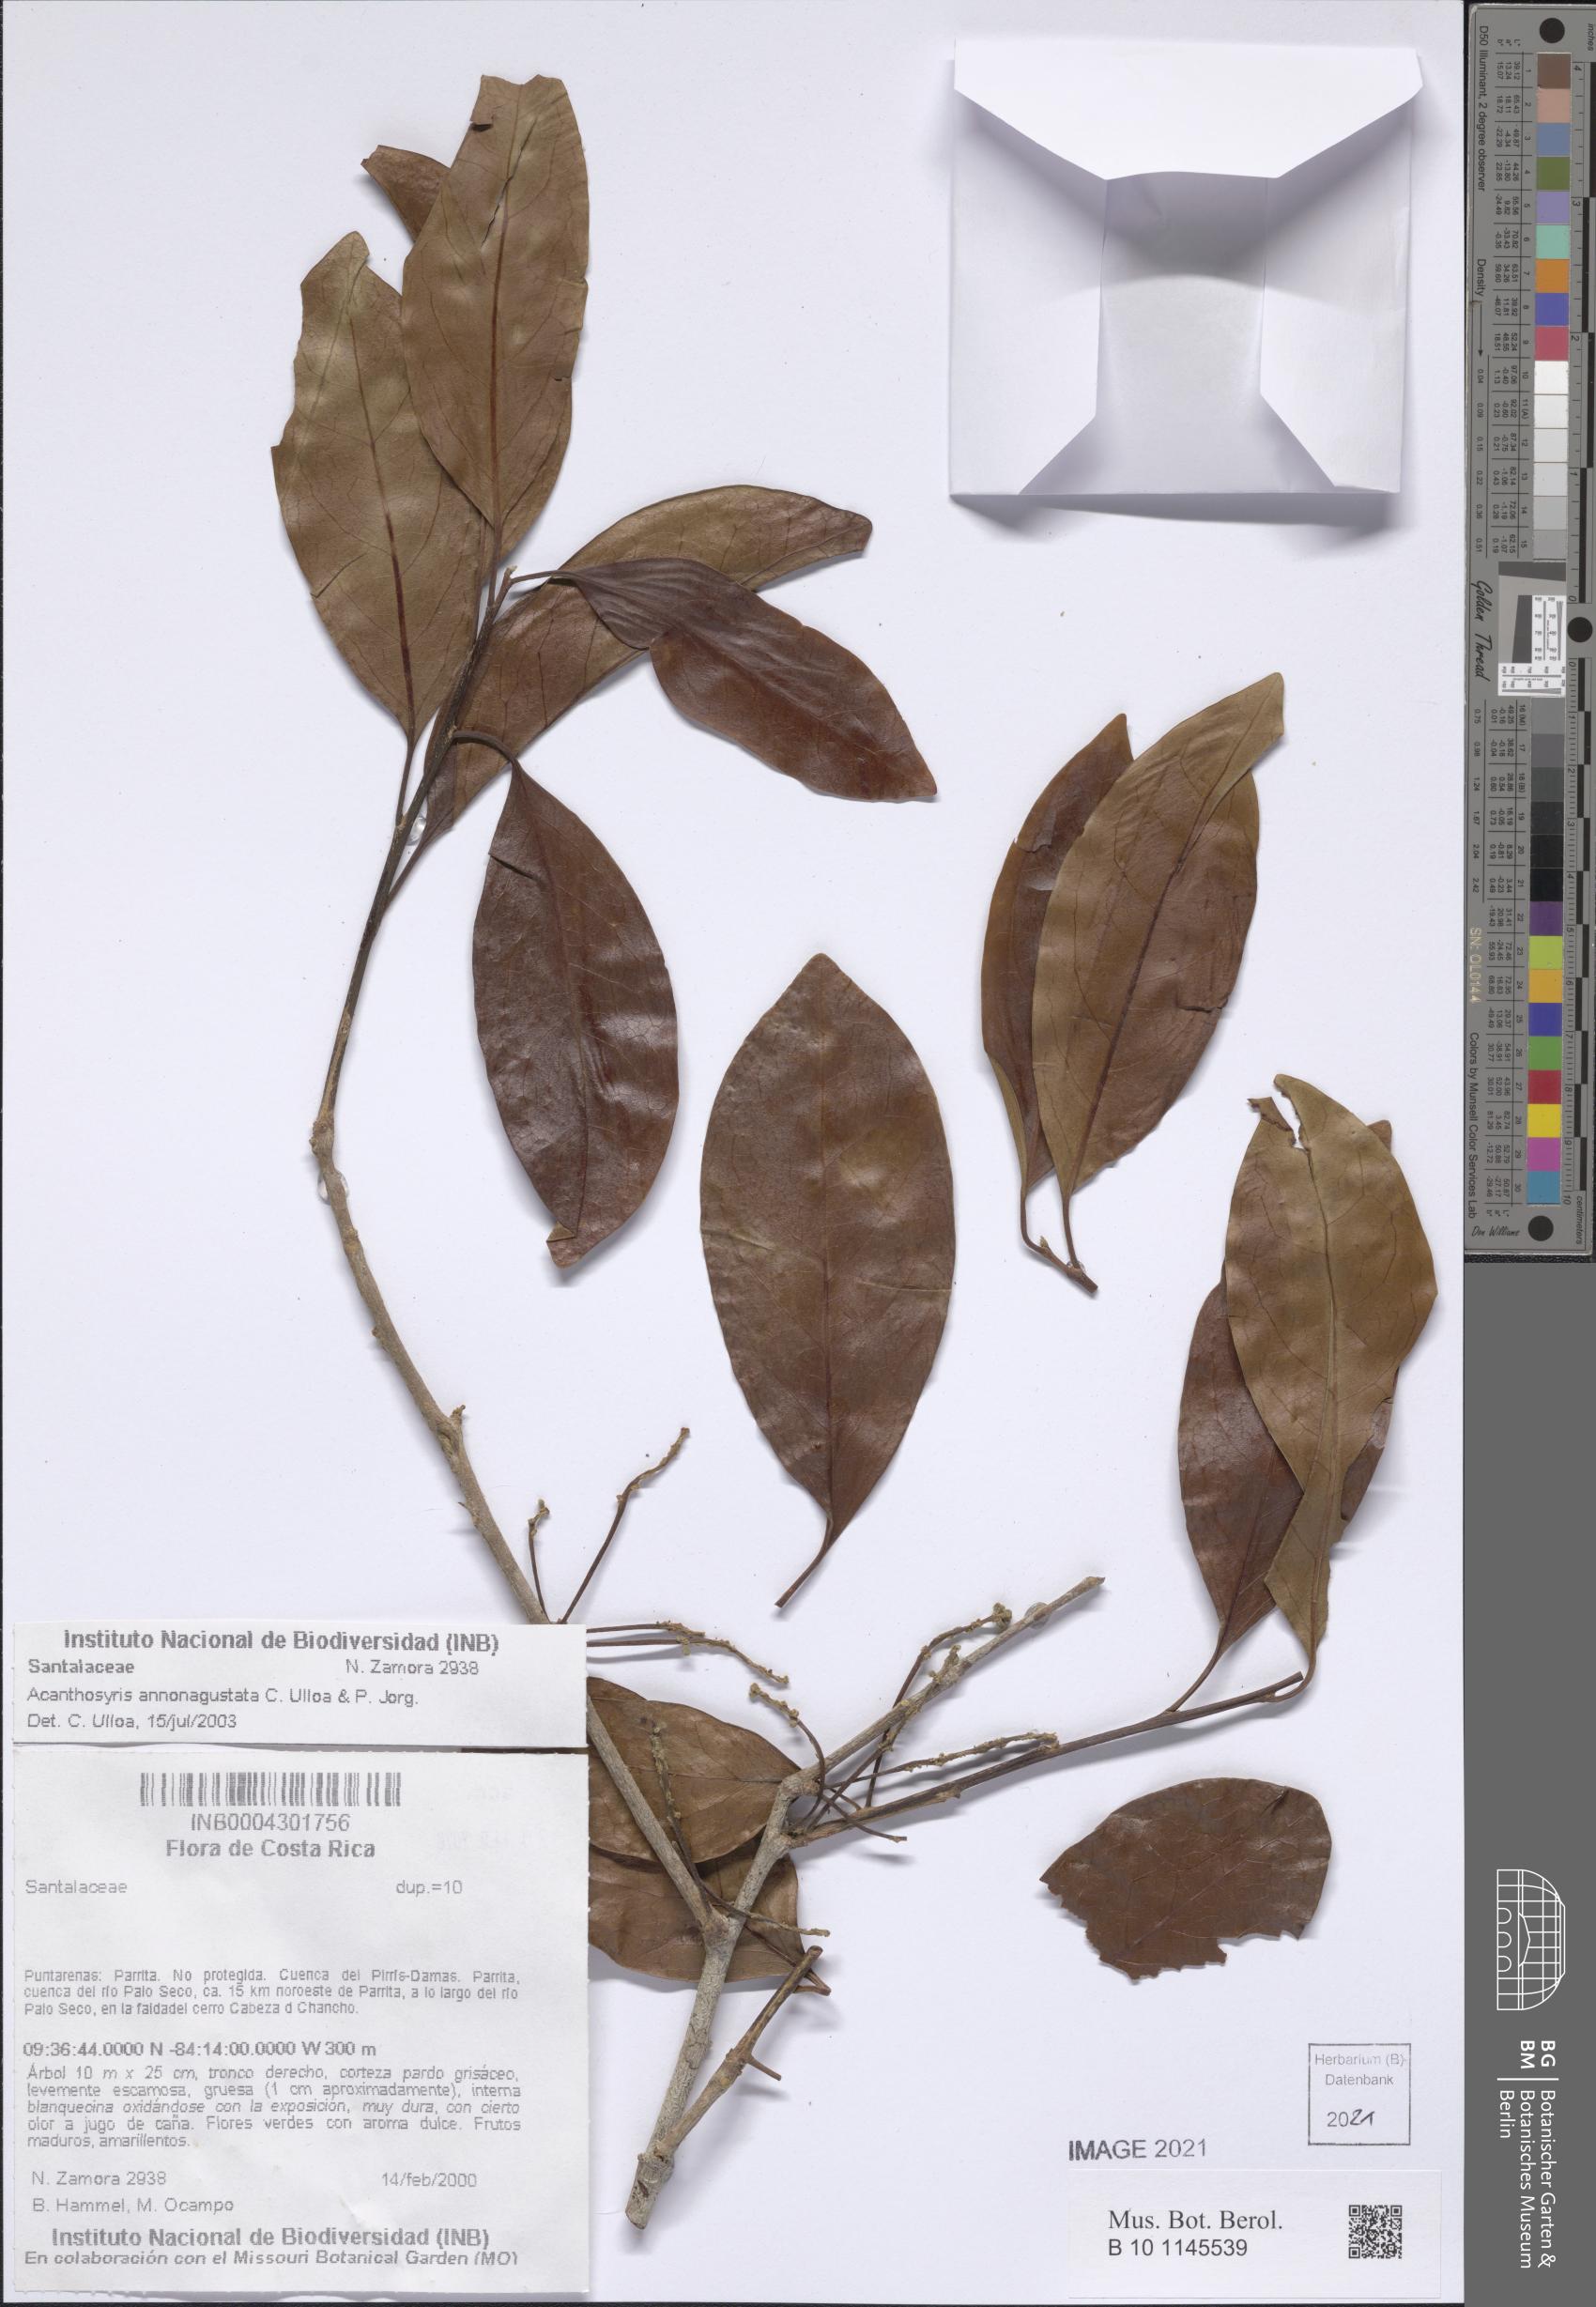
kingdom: Plantae
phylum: Tracheophyta
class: Magnoliopsida
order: Santalales
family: Cervantesiaceae
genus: Acanthosyris
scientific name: Acanthosyris annonagustata
